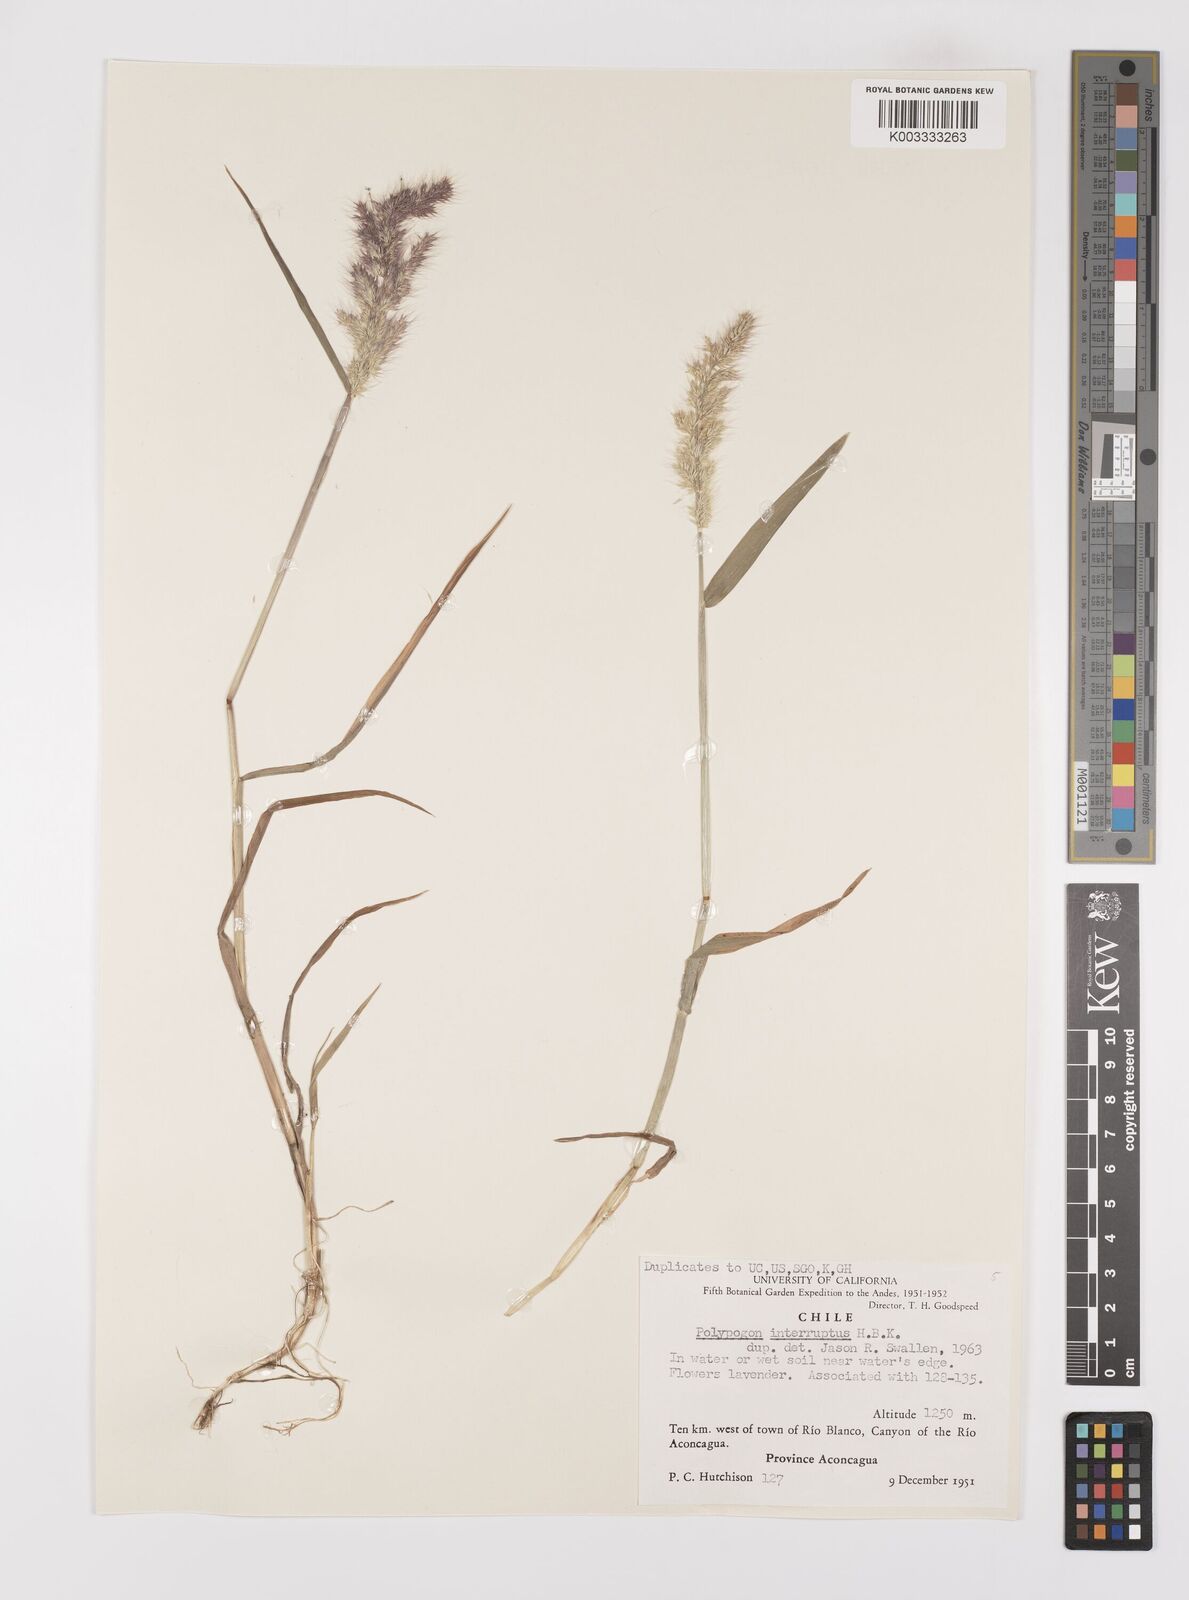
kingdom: Plantae
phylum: Tracheophyta
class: Liliopsida
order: Poales
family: Poaceae
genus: Polypogon
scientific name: Polypogon interruptus
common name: Ditch polypogon
